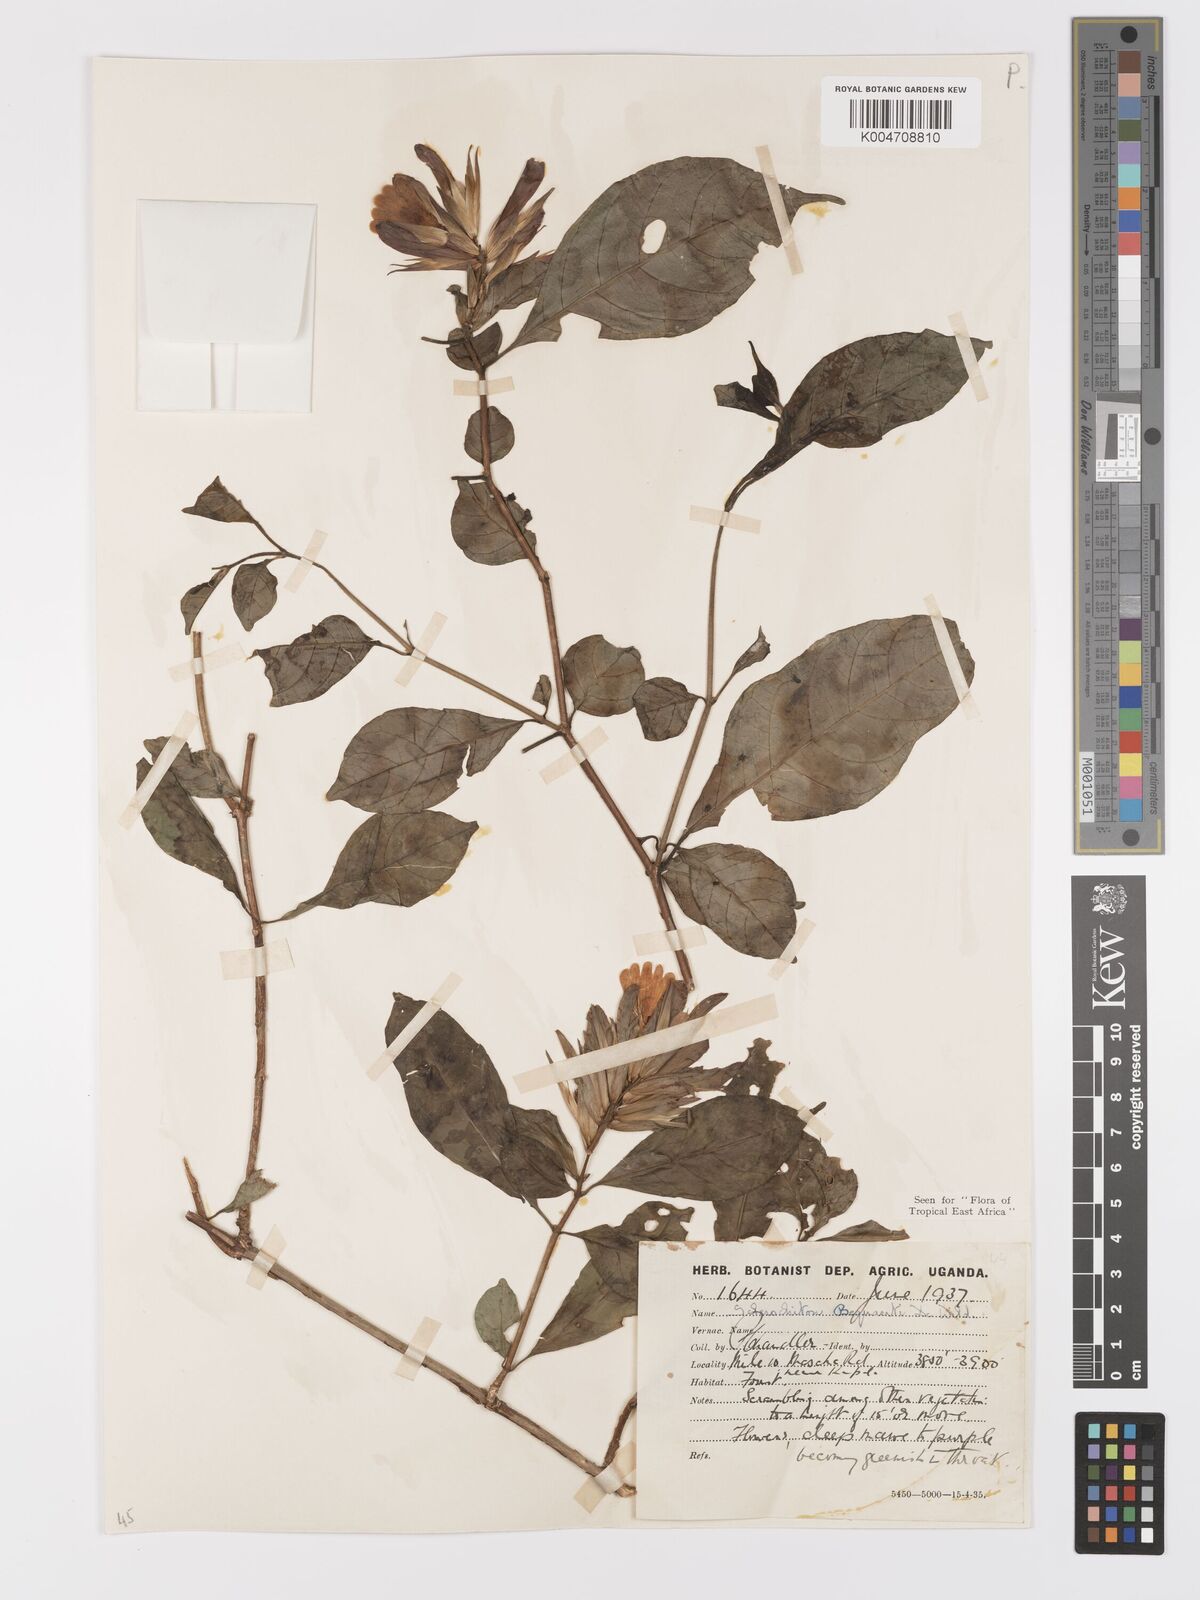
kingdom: Plantae
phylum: Tracheophyta
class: Magnoliopsida
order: Lamiales
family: Acanthaceae
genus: Sclerochiton
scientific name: Sclerochiton bequaertii
